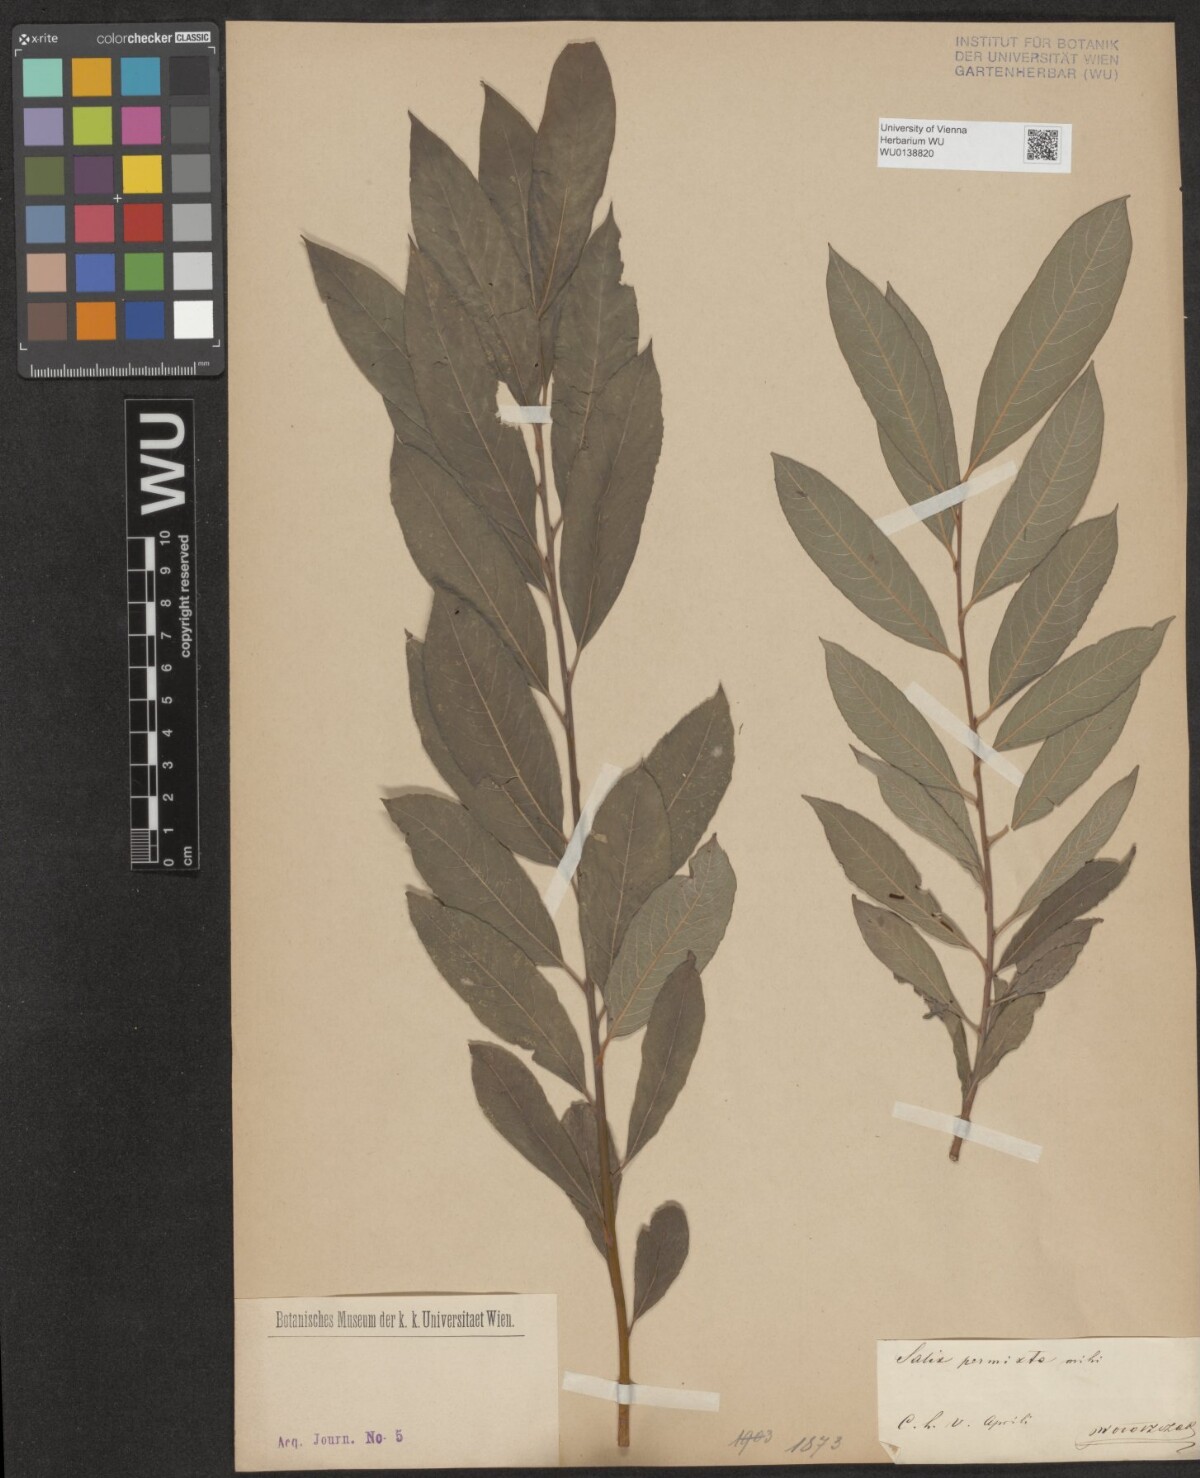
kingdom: Plantae
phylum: Tracheophyta
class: Magnoliopsida
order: Malpighiales
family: Salicaceae
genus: Salix
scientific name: Salix permixta
